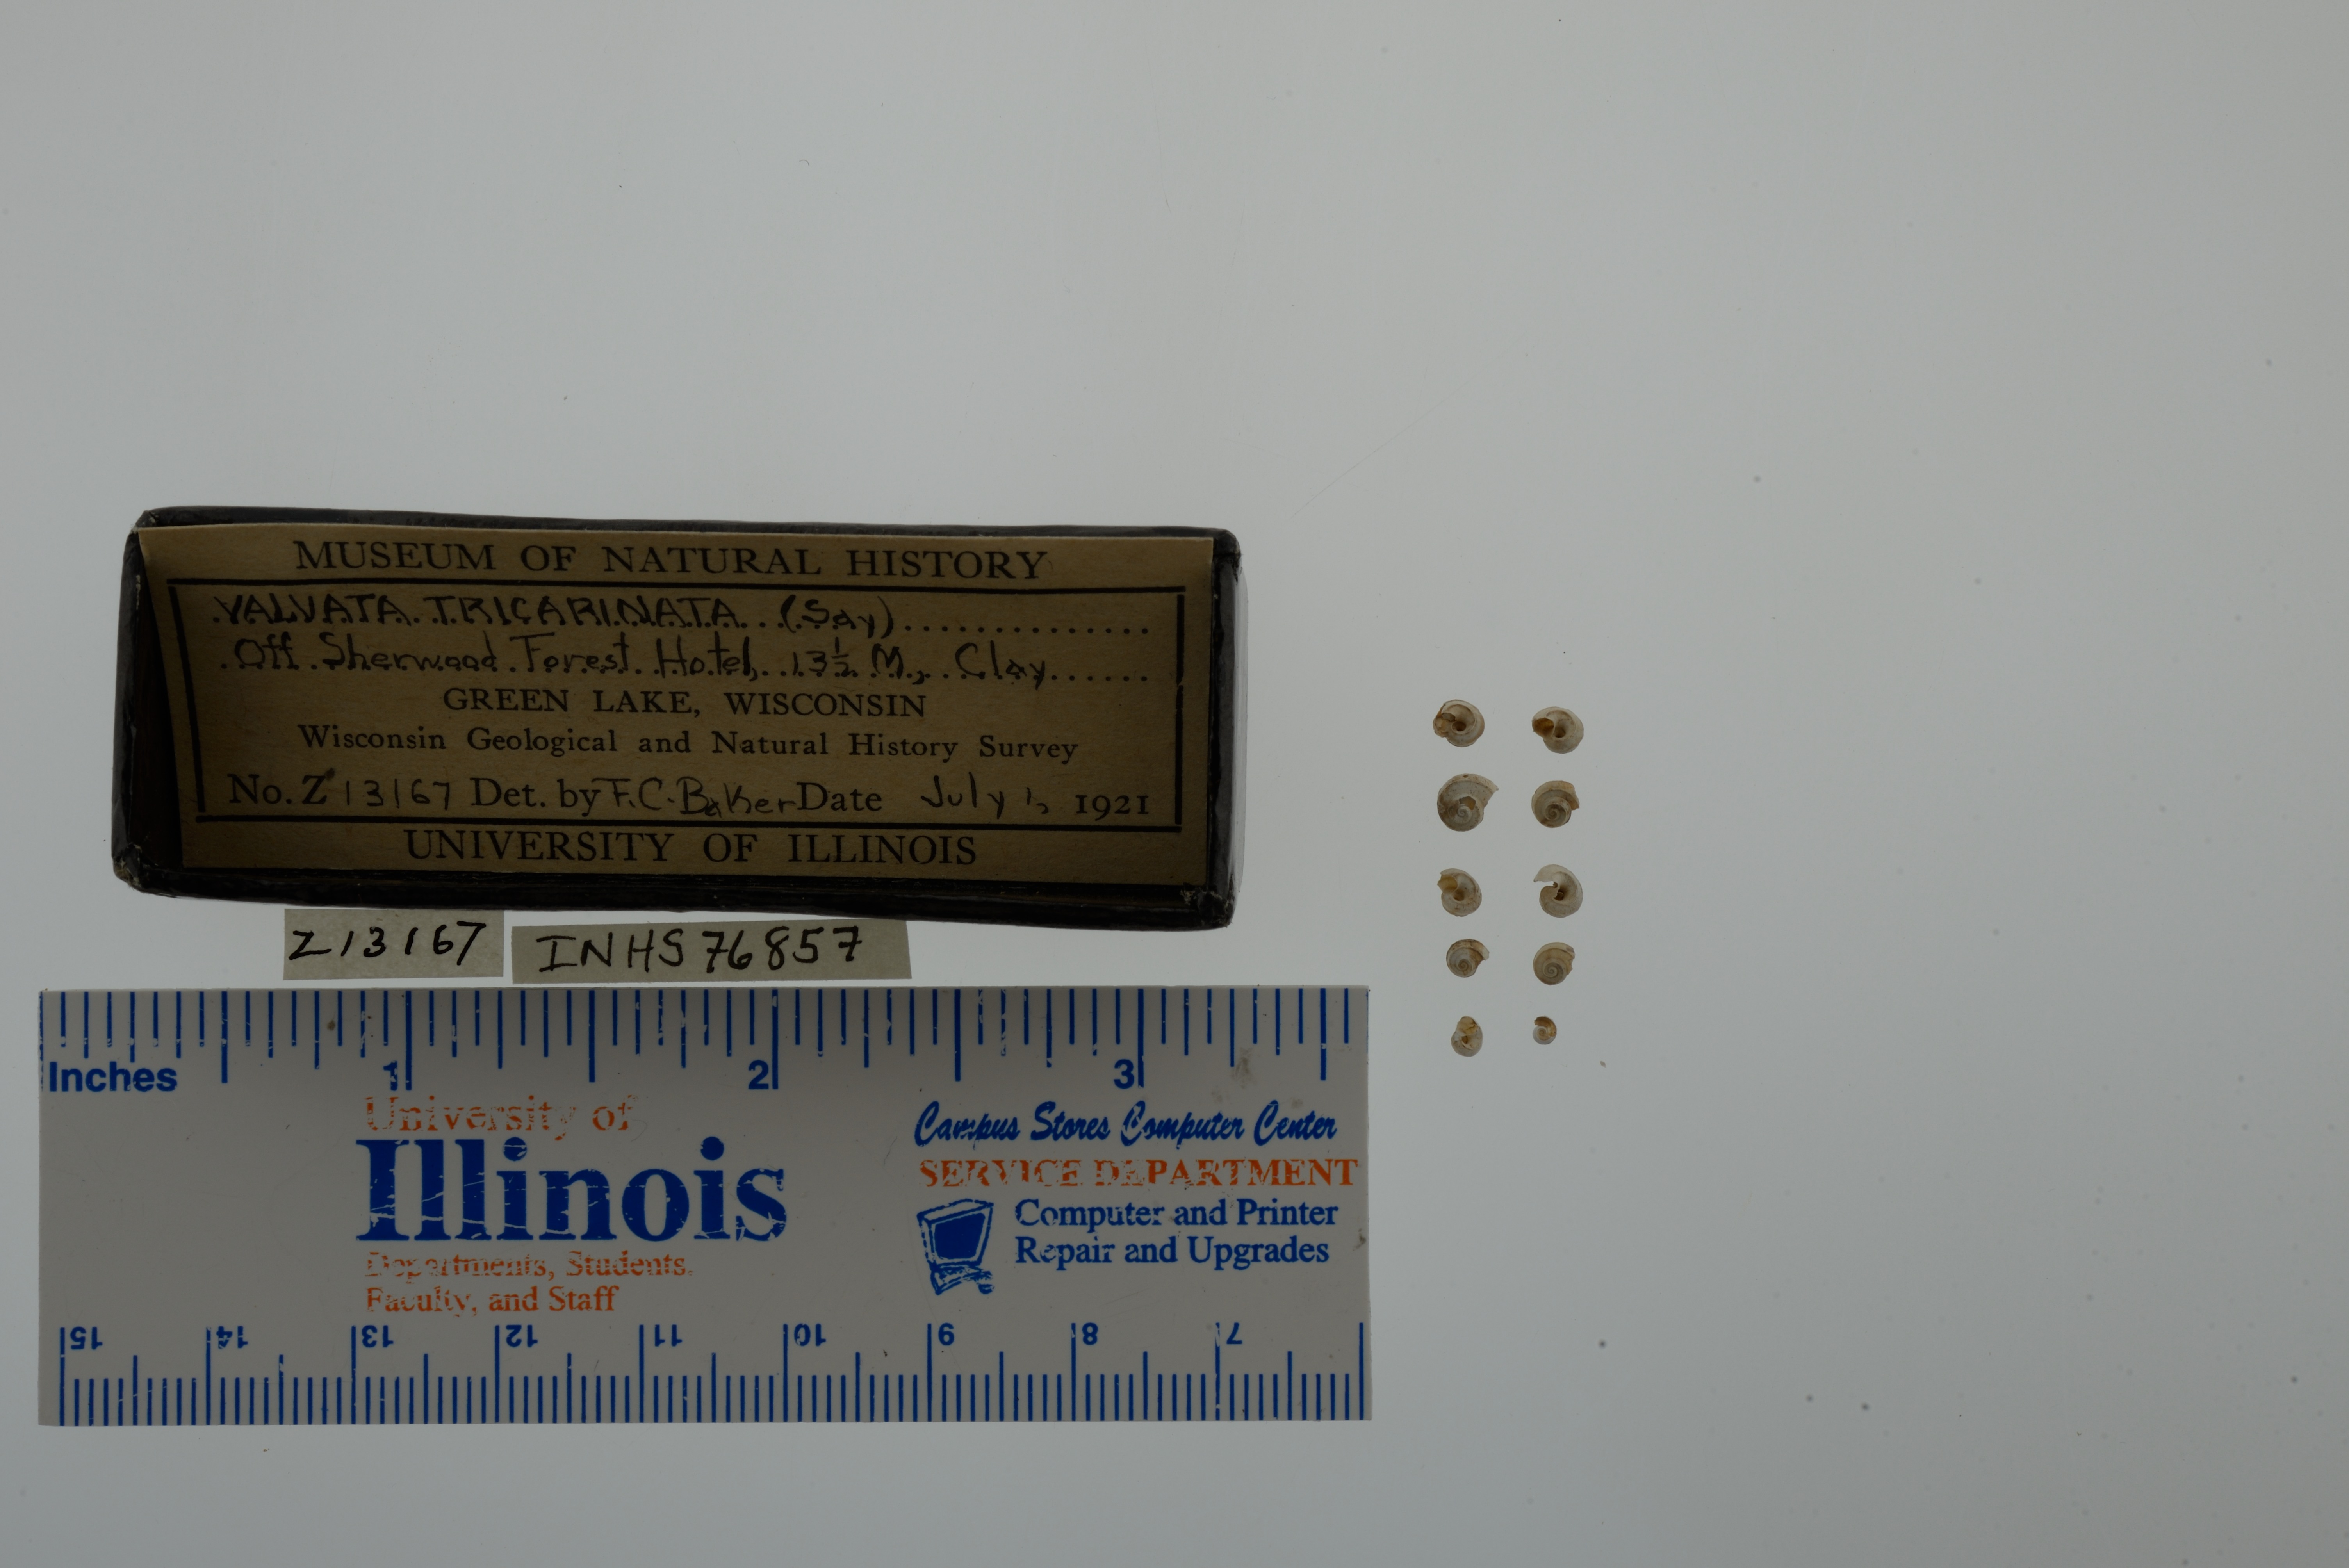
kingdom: Animalia
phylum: Mollusca
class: Gastropoda
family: Valvatidae
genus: Valvata
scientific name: Valvata tricarinata
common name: Three-ridge valvata
